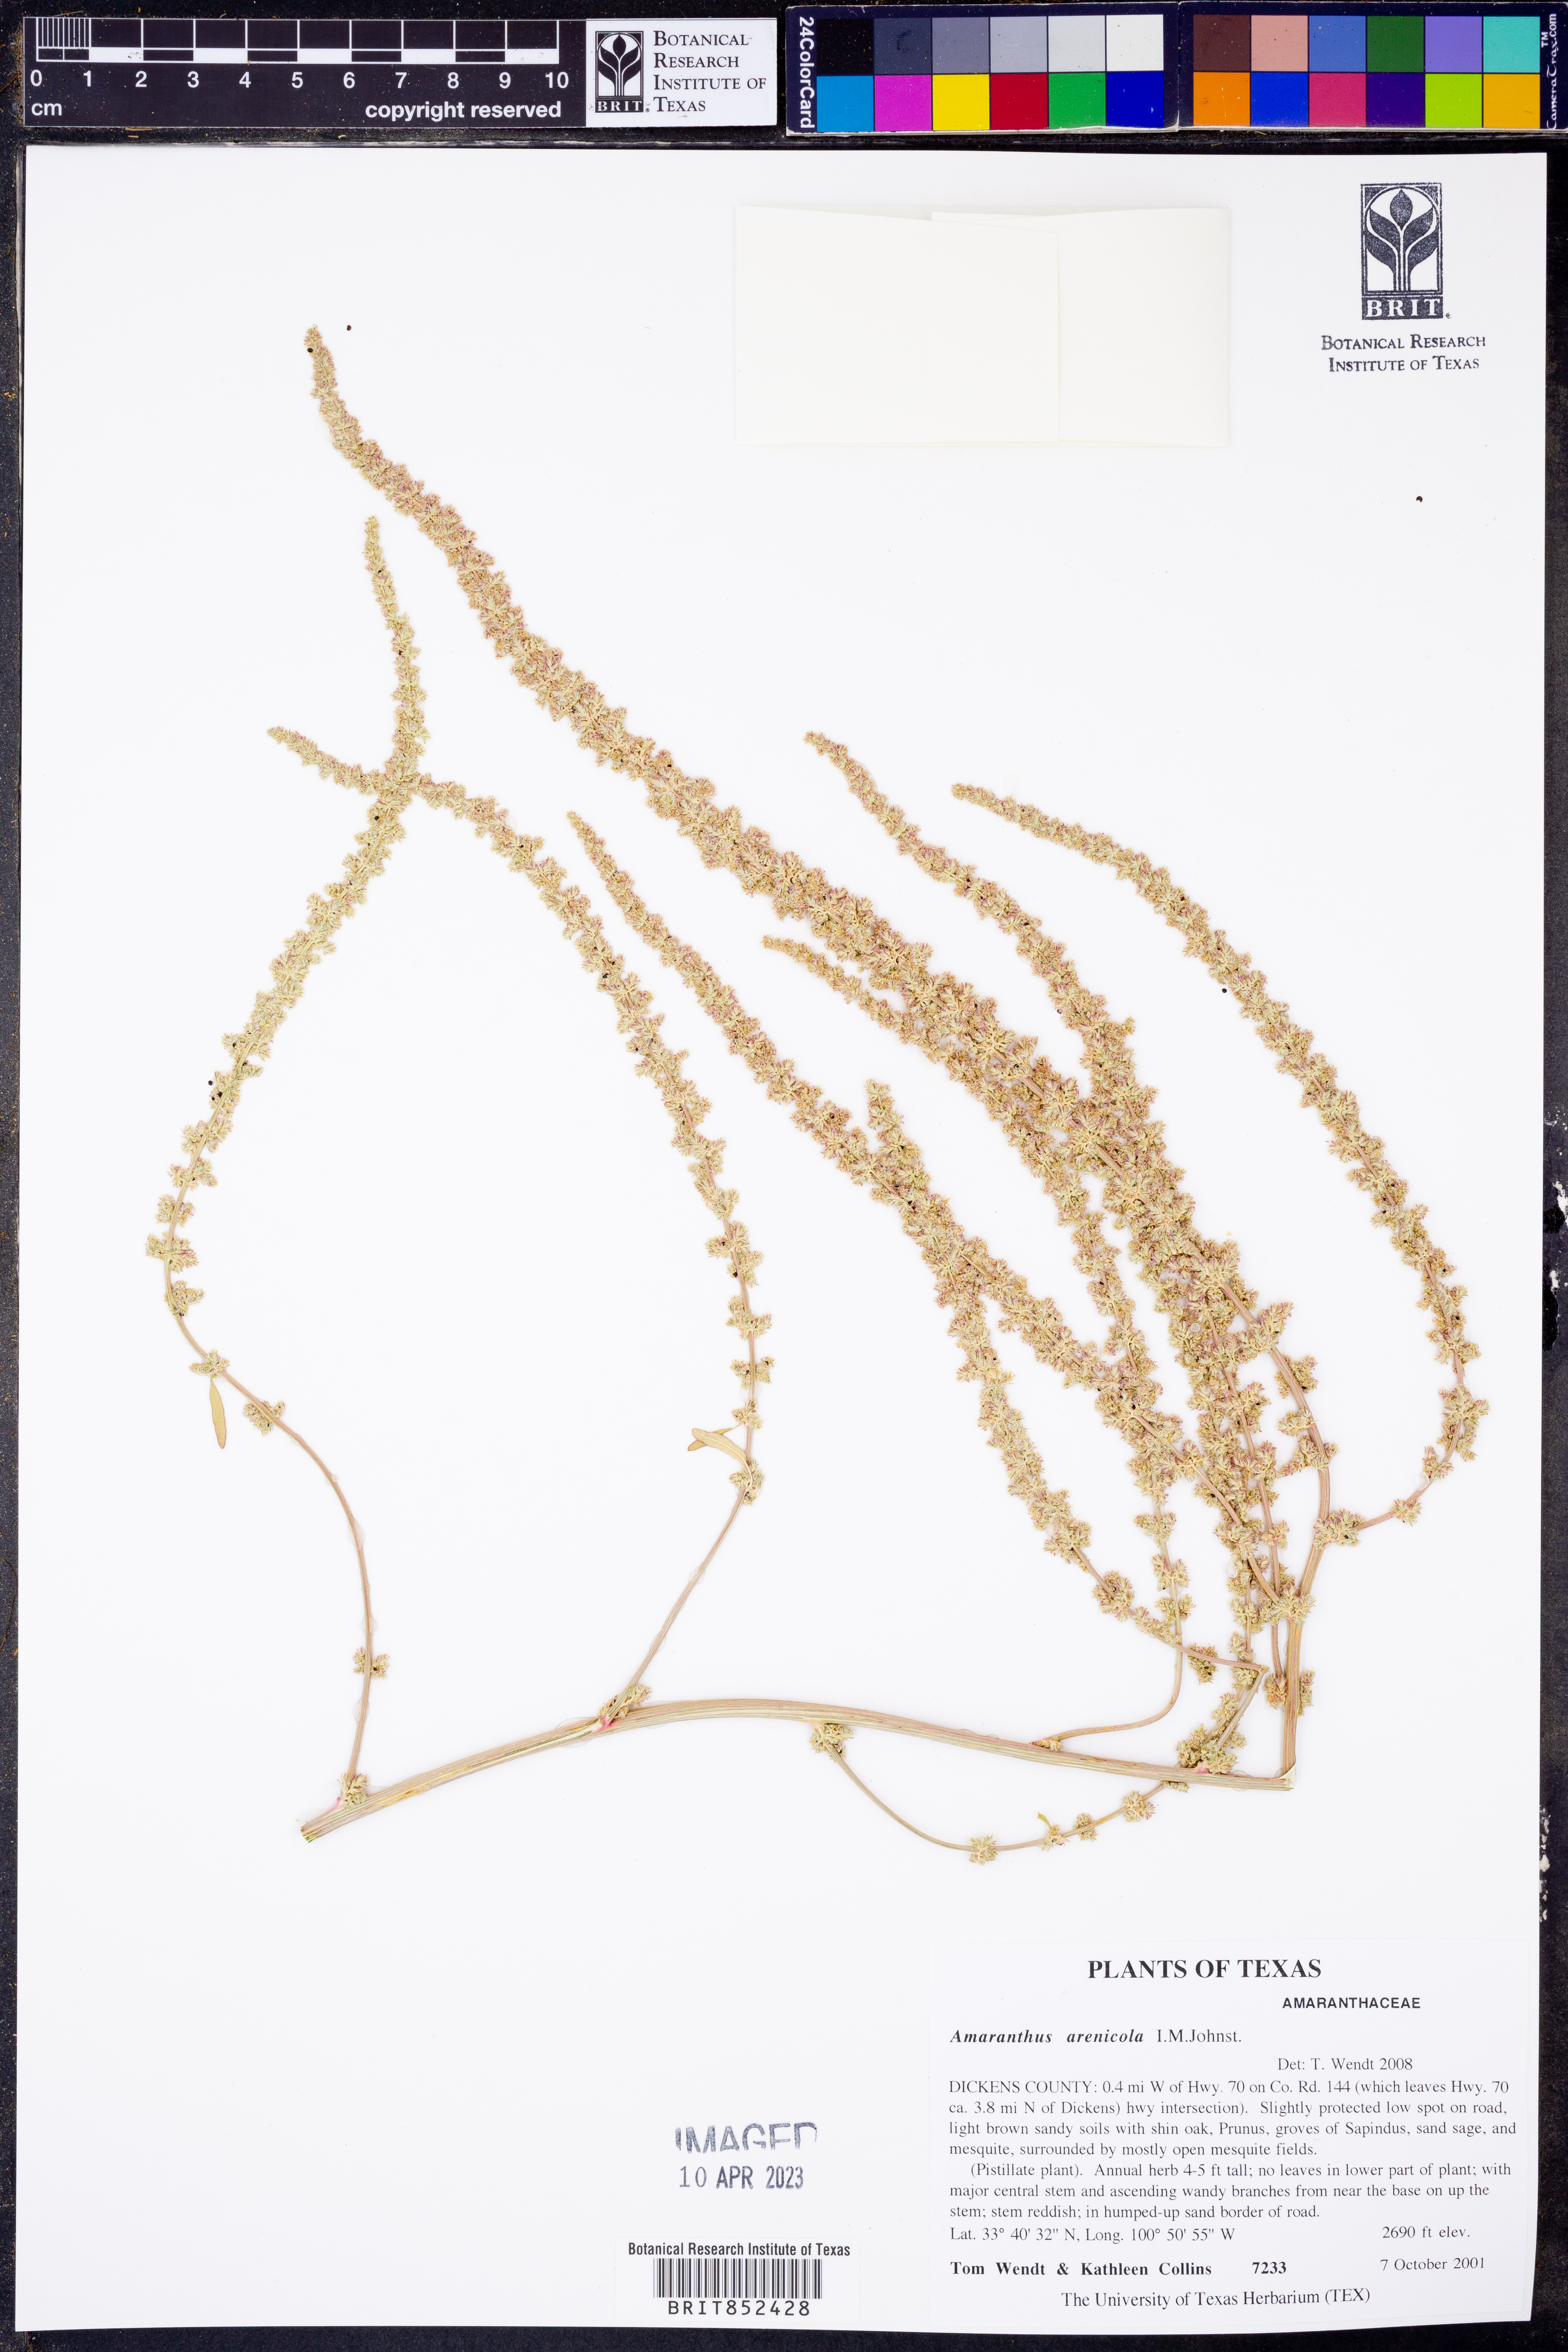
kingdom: Plantae
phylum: Tracheophyta
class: Magnoliopsida
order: Caryophyllales
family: Amaranthaceae
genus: Amaranthus
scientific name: Amaranthus arenicola
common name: Sandhills amaranth
